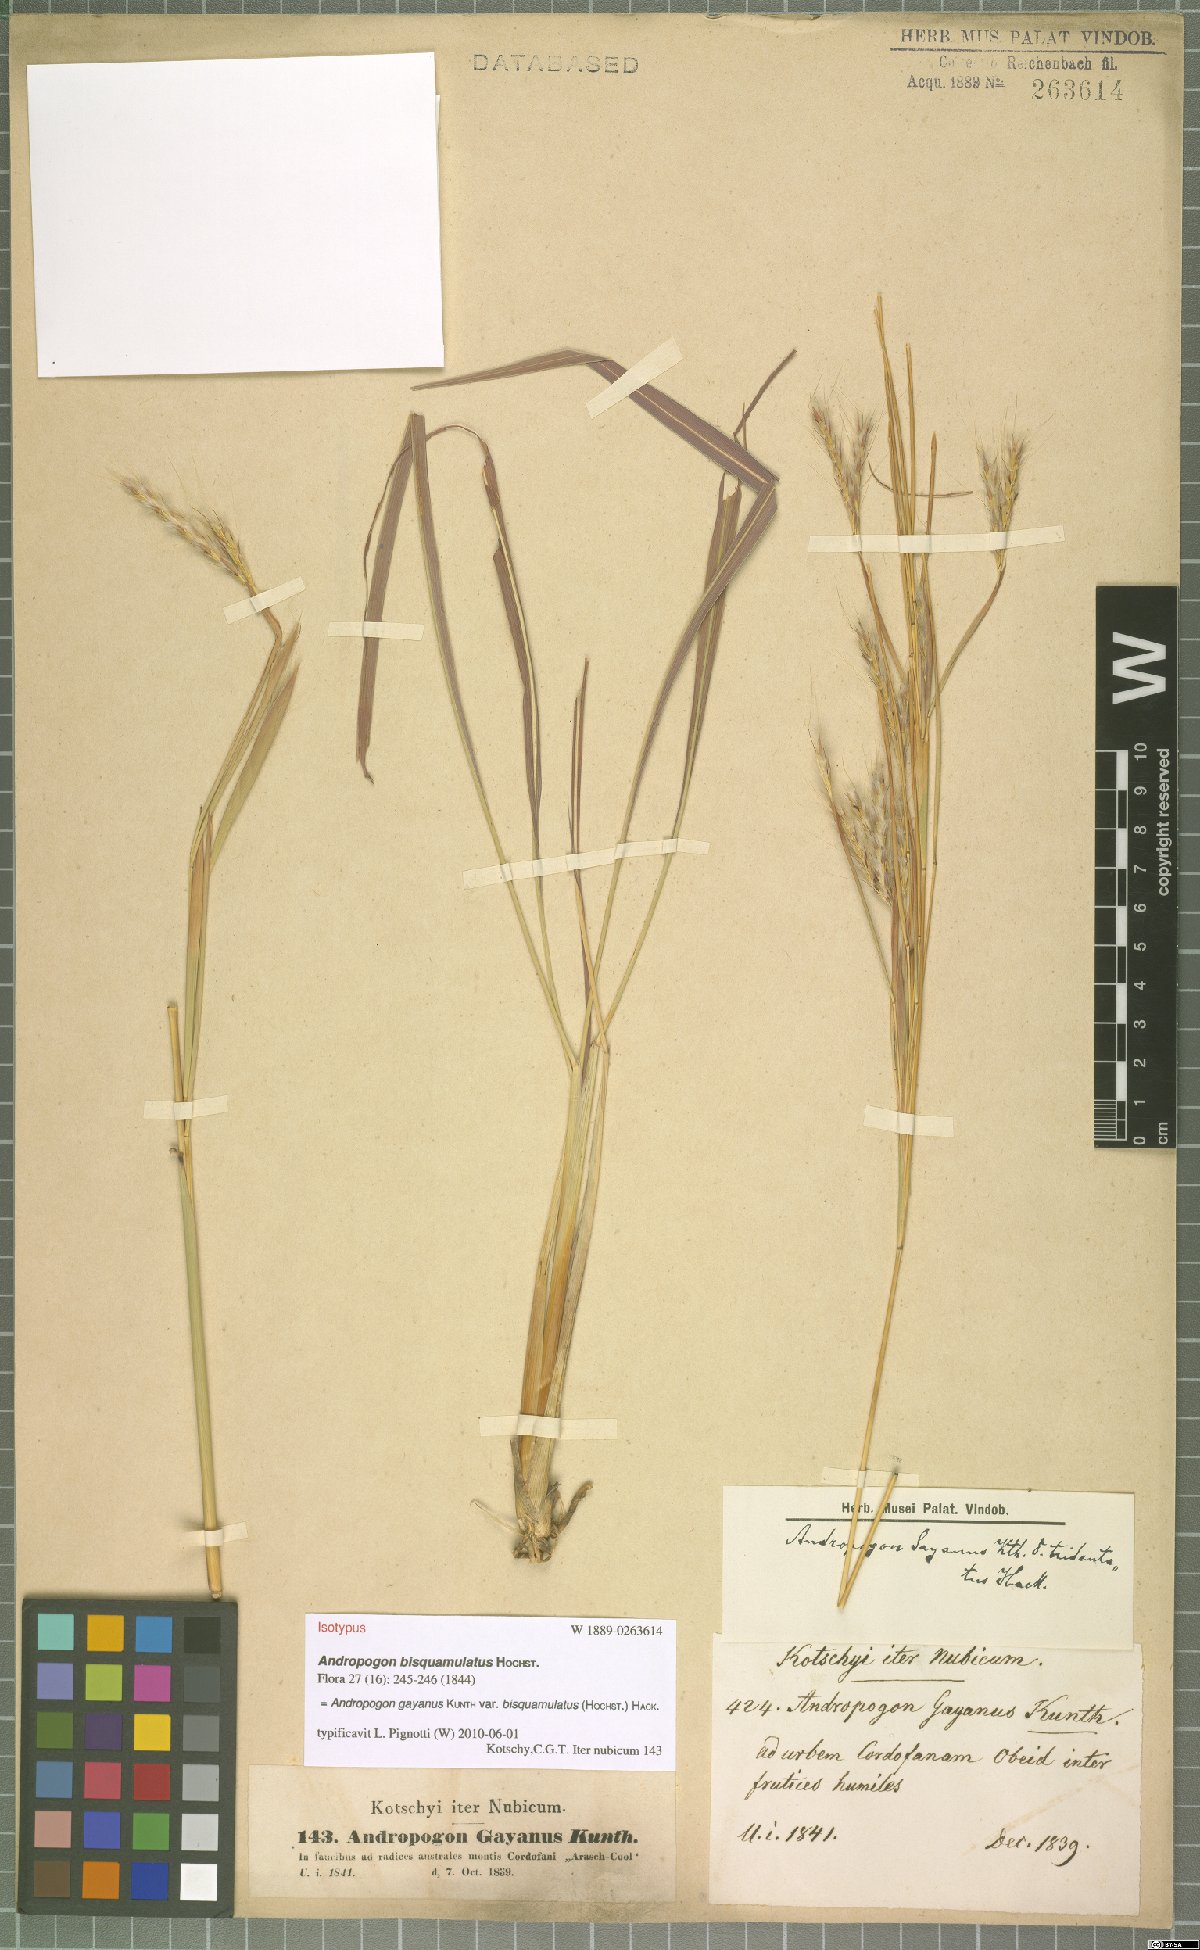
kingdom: Plantae
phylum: Tracheophyta
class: Liliopsida
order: Poales
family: Poaceae
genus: Andropogon
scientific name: Andropogon gayanus
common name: Tambuki grass
